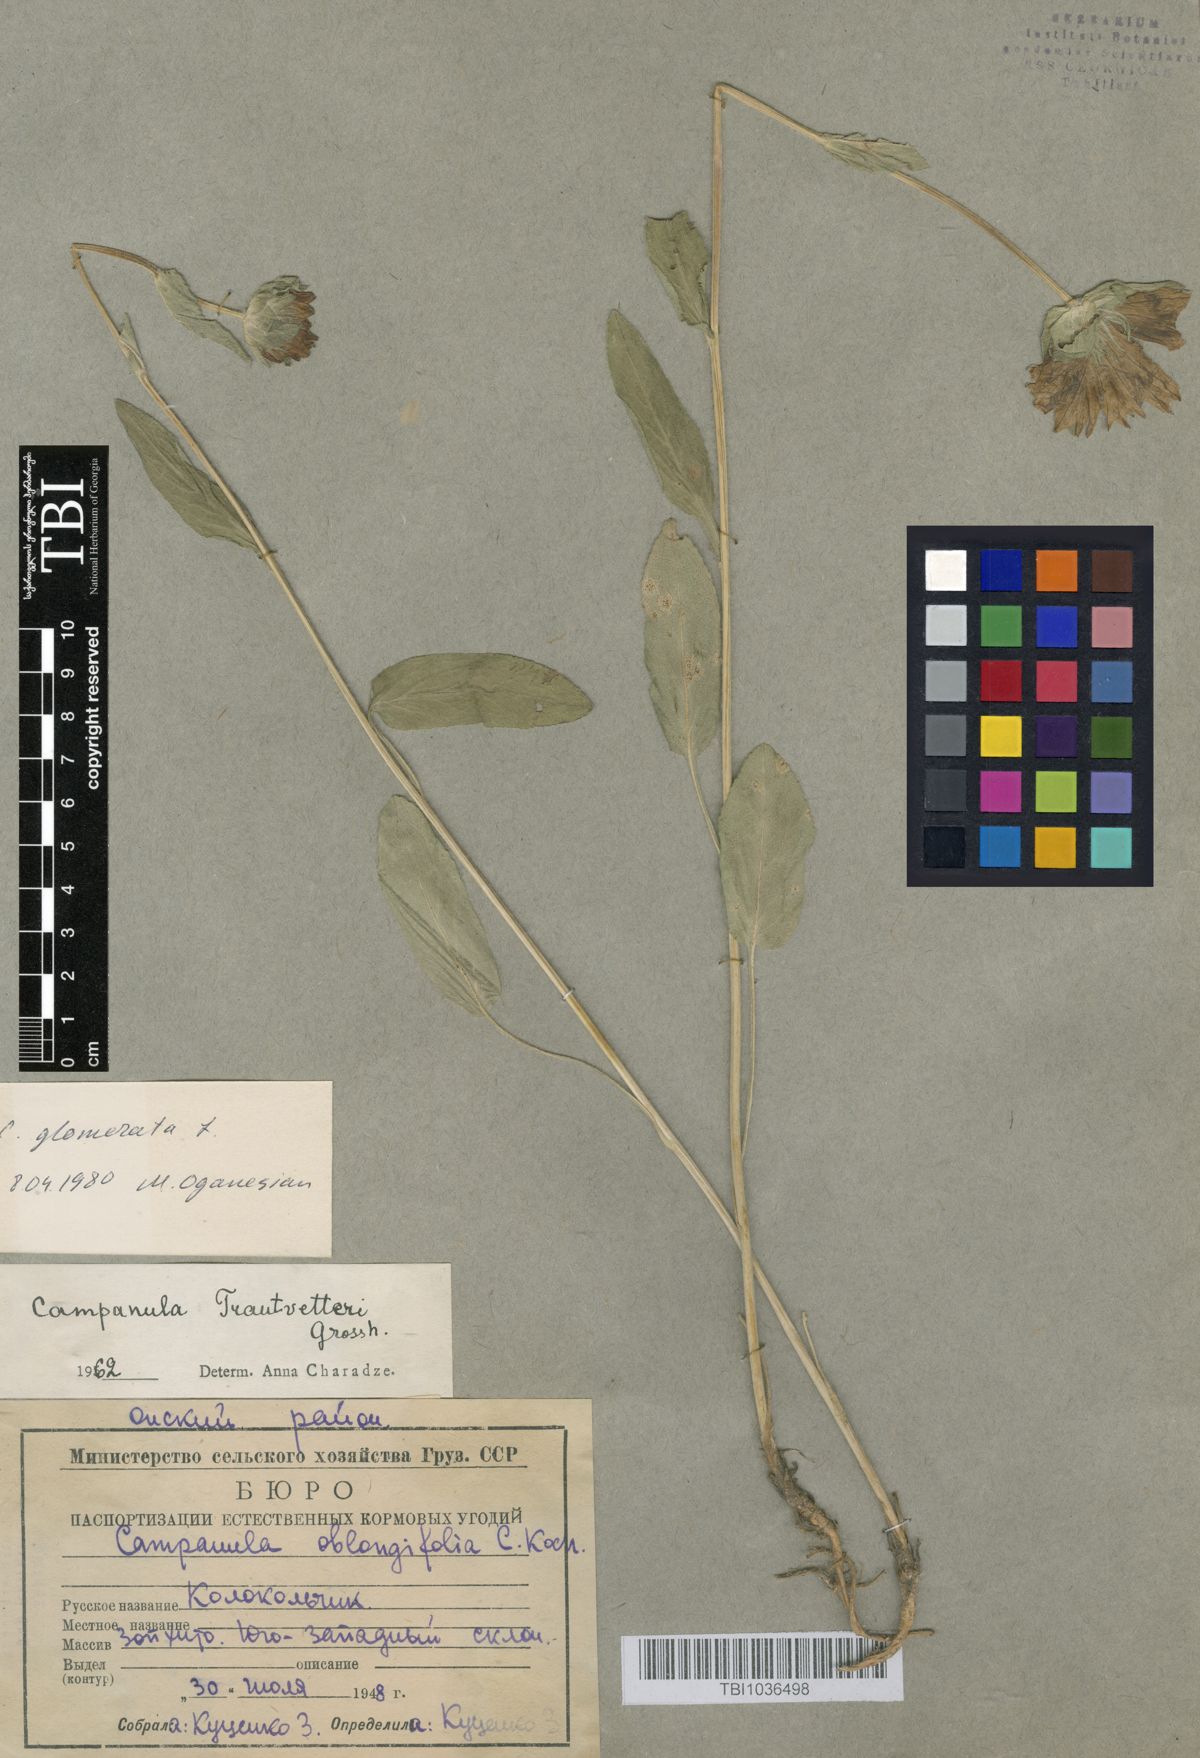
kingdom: Plantae
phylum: Tracheophyta
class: Magnoliopsida
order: Asterales
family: Campanulaceae
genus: Campanula
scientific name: Campanula glomerata
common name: Clustered bellflower
